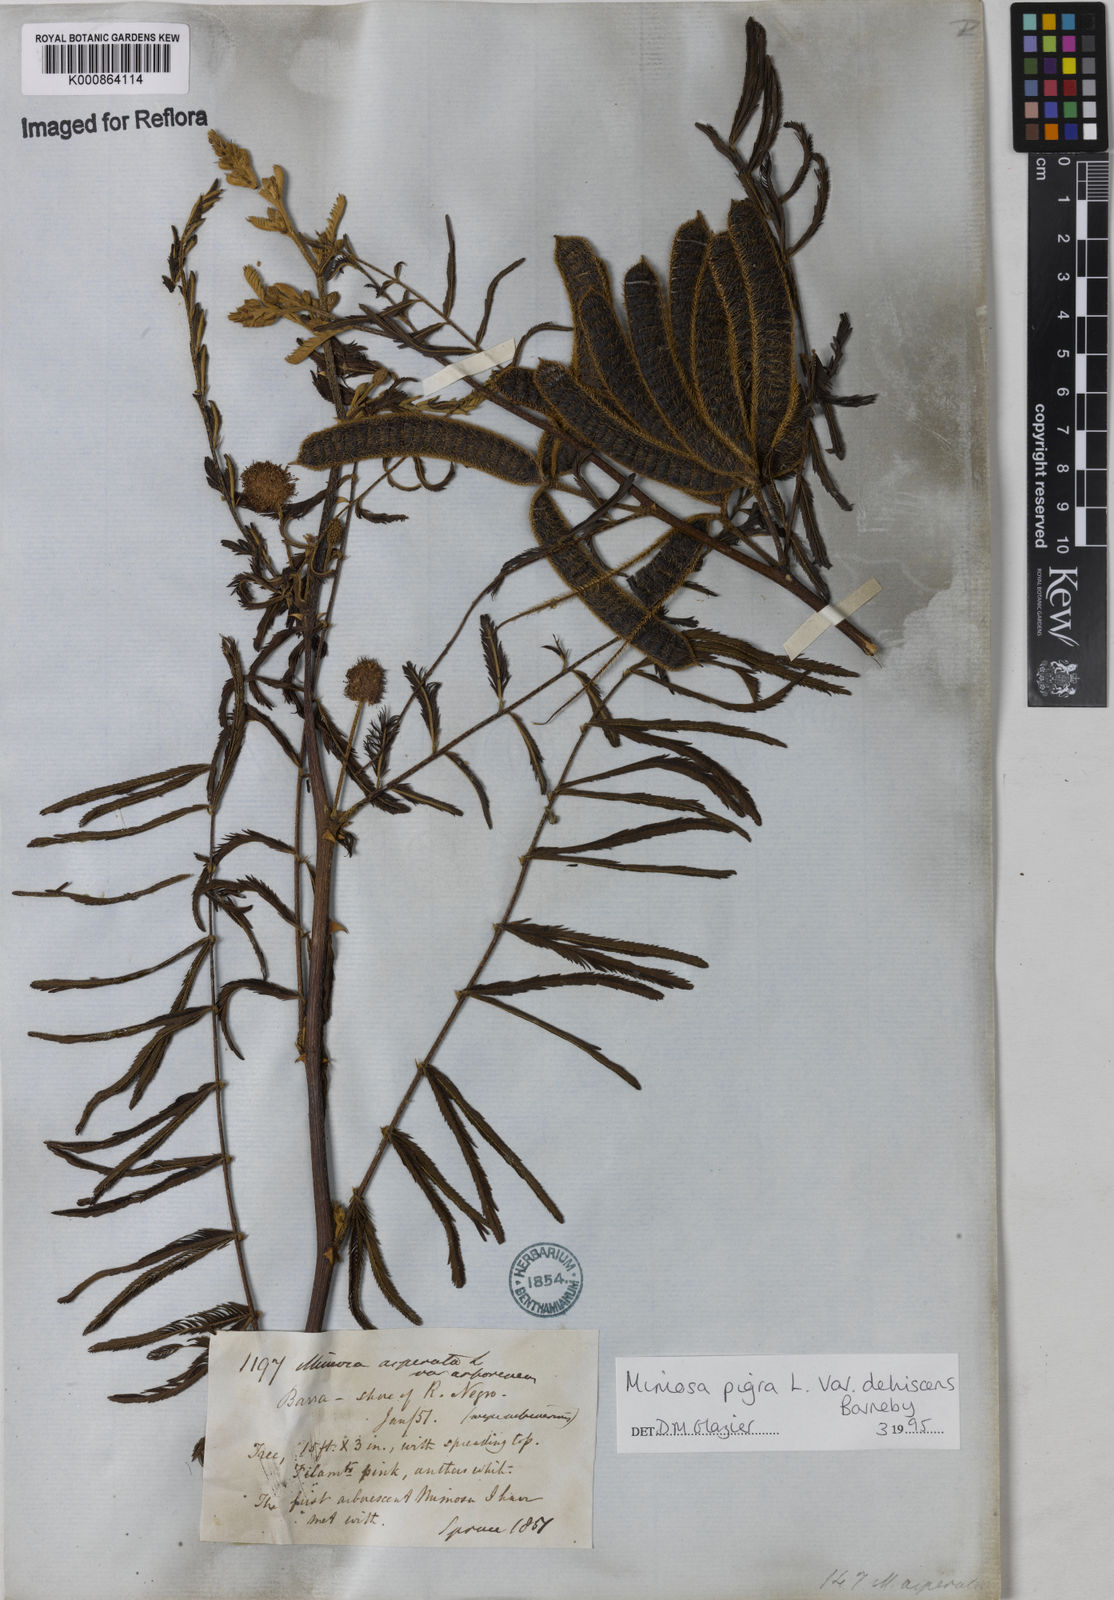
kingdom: Plantae
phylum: Tracheophyta
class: Magnoliopsida
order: Fabales
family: Fabaceae
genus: Mimosa
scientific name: Mimosa pigra
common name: Black mimosa
